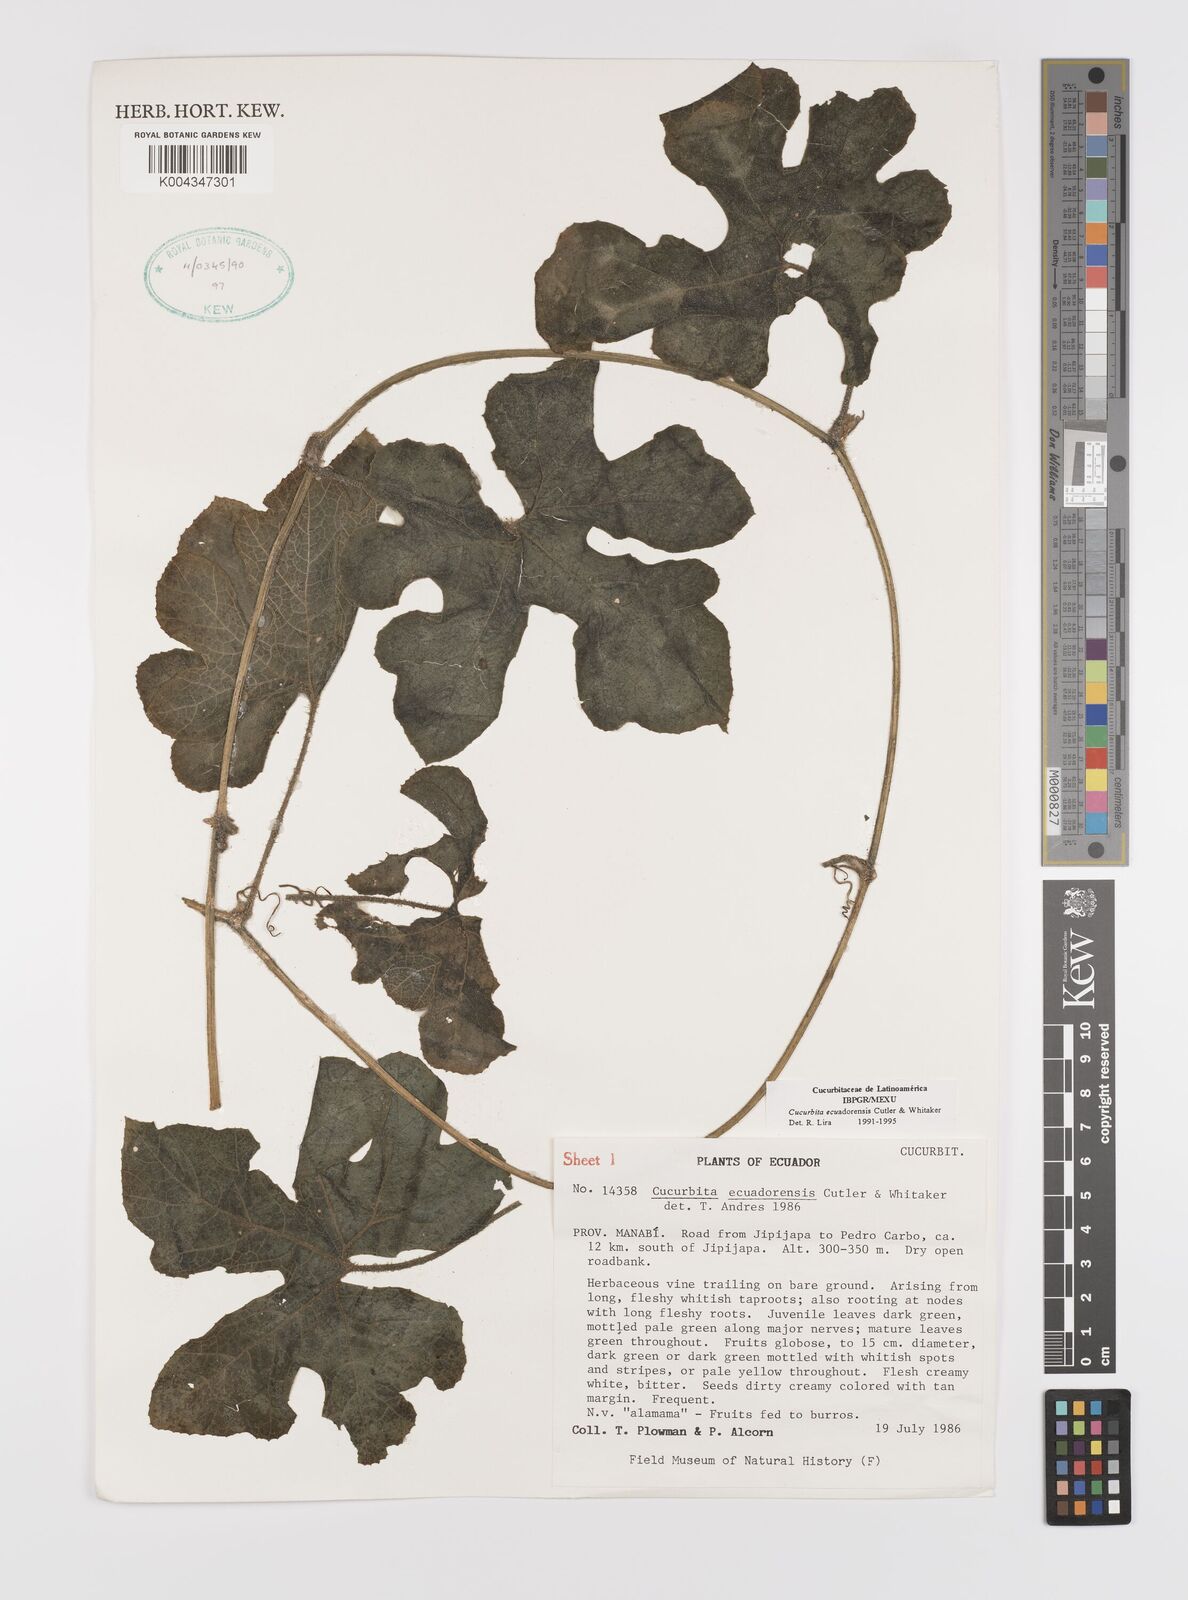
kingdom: Plantae
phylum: Tracheophyta
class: Magnoliopsida
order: Cucurbitales
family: Cucurbitaceae
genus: Cucurbita
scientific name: Cucurbita ecuadorensis
